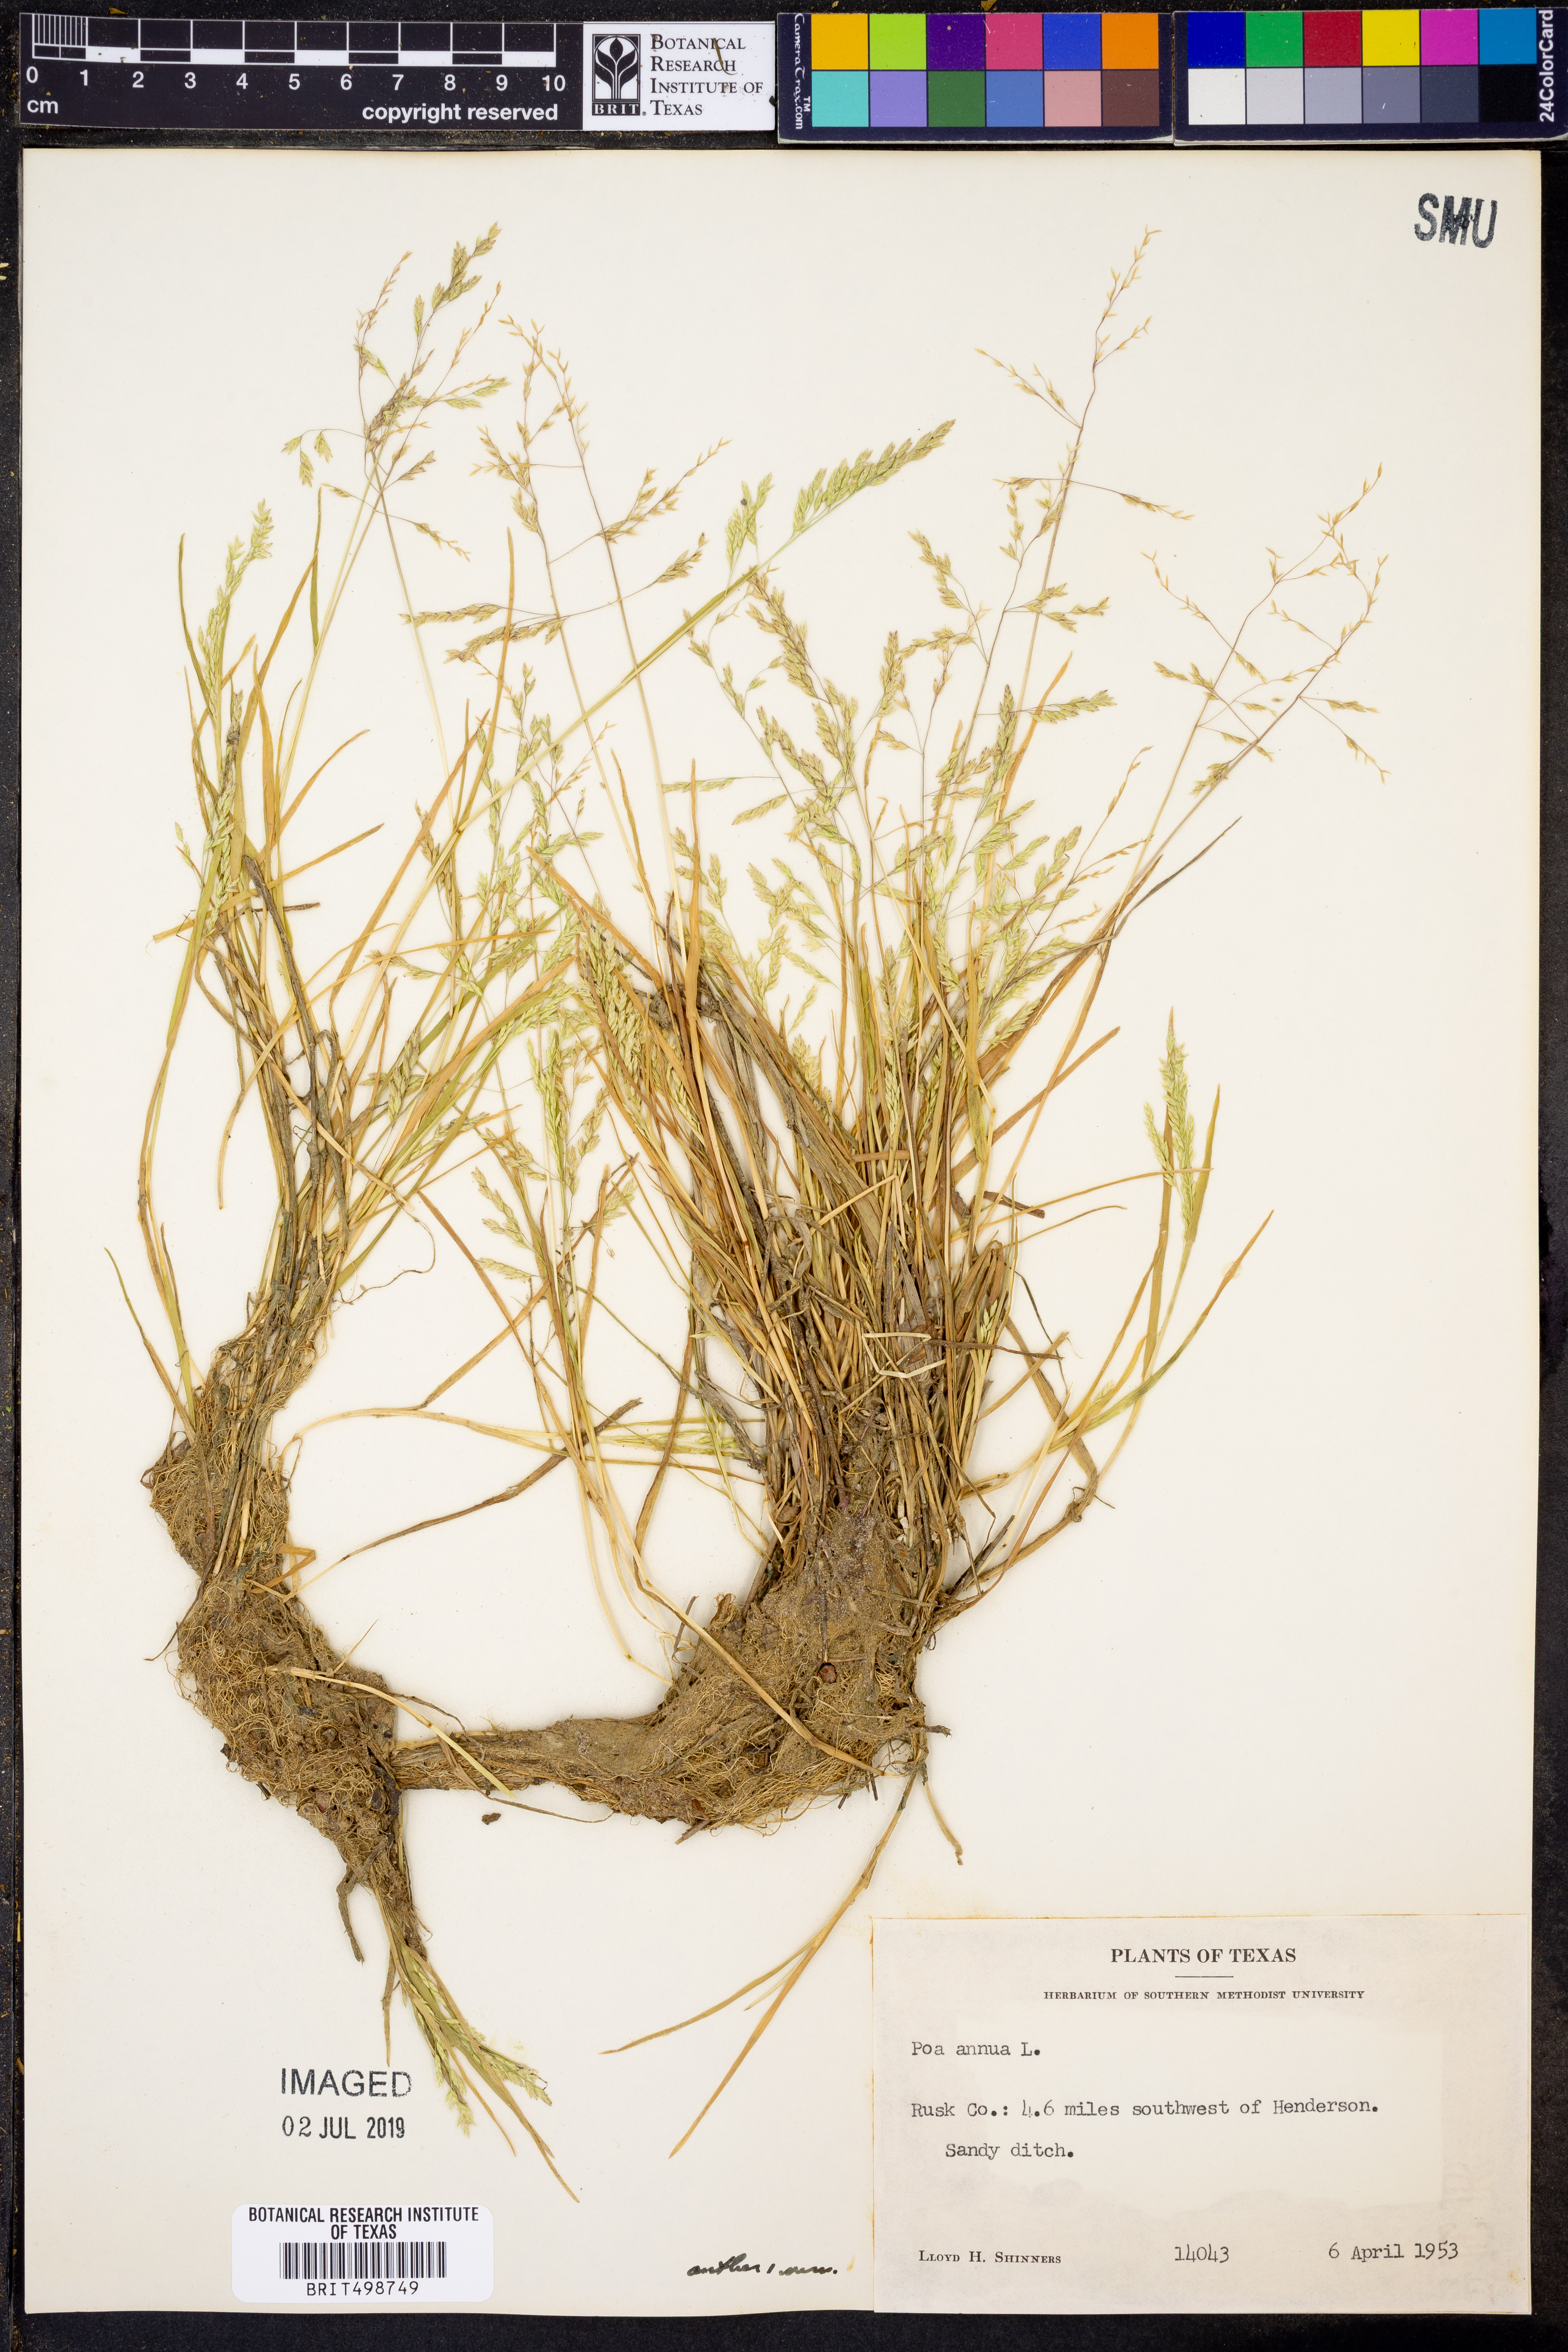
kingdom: Plantae
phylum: Tracheophyta
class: Liliopsida
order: Poales
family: Poaceae
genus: Poa
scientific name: Poa annua
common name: Annual bluegrass
